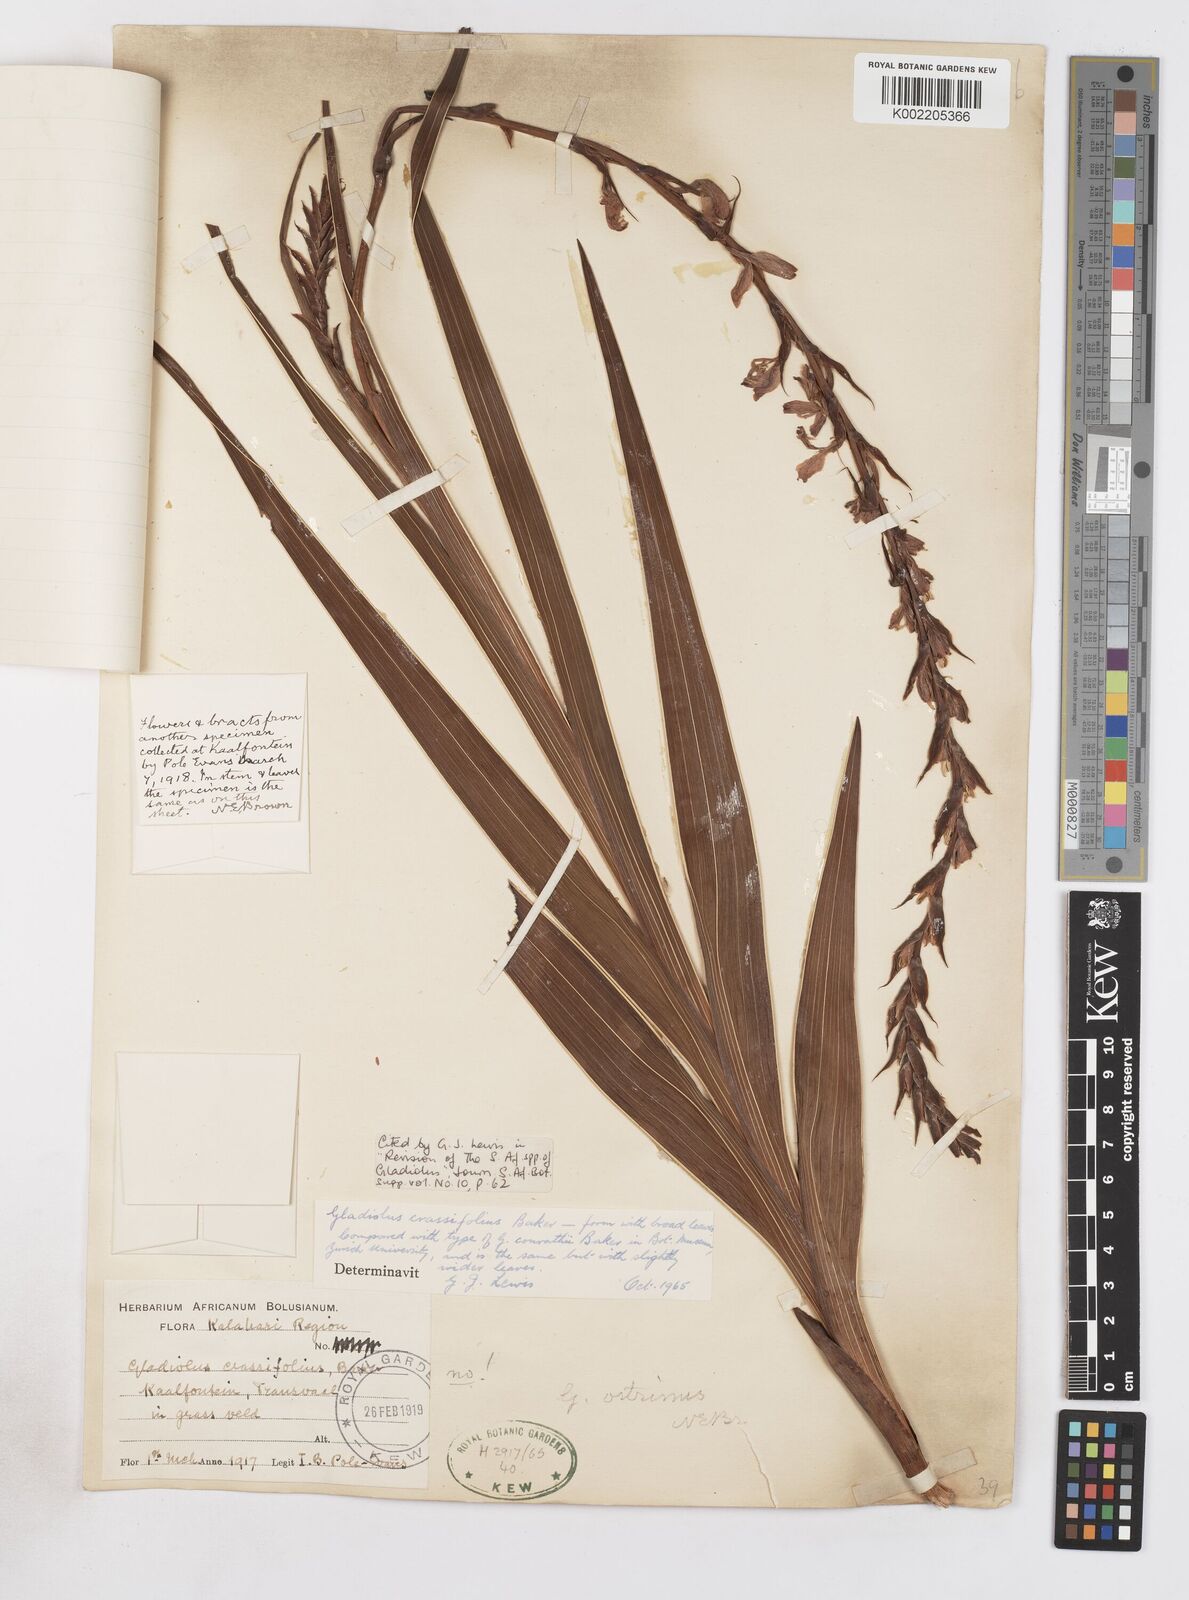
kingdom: Plantae
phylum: Tracheophyta
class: Liliopsida
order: Asparagales
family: Iridaceae
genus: Gladiolus
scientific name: Gladiolus crassifolius
